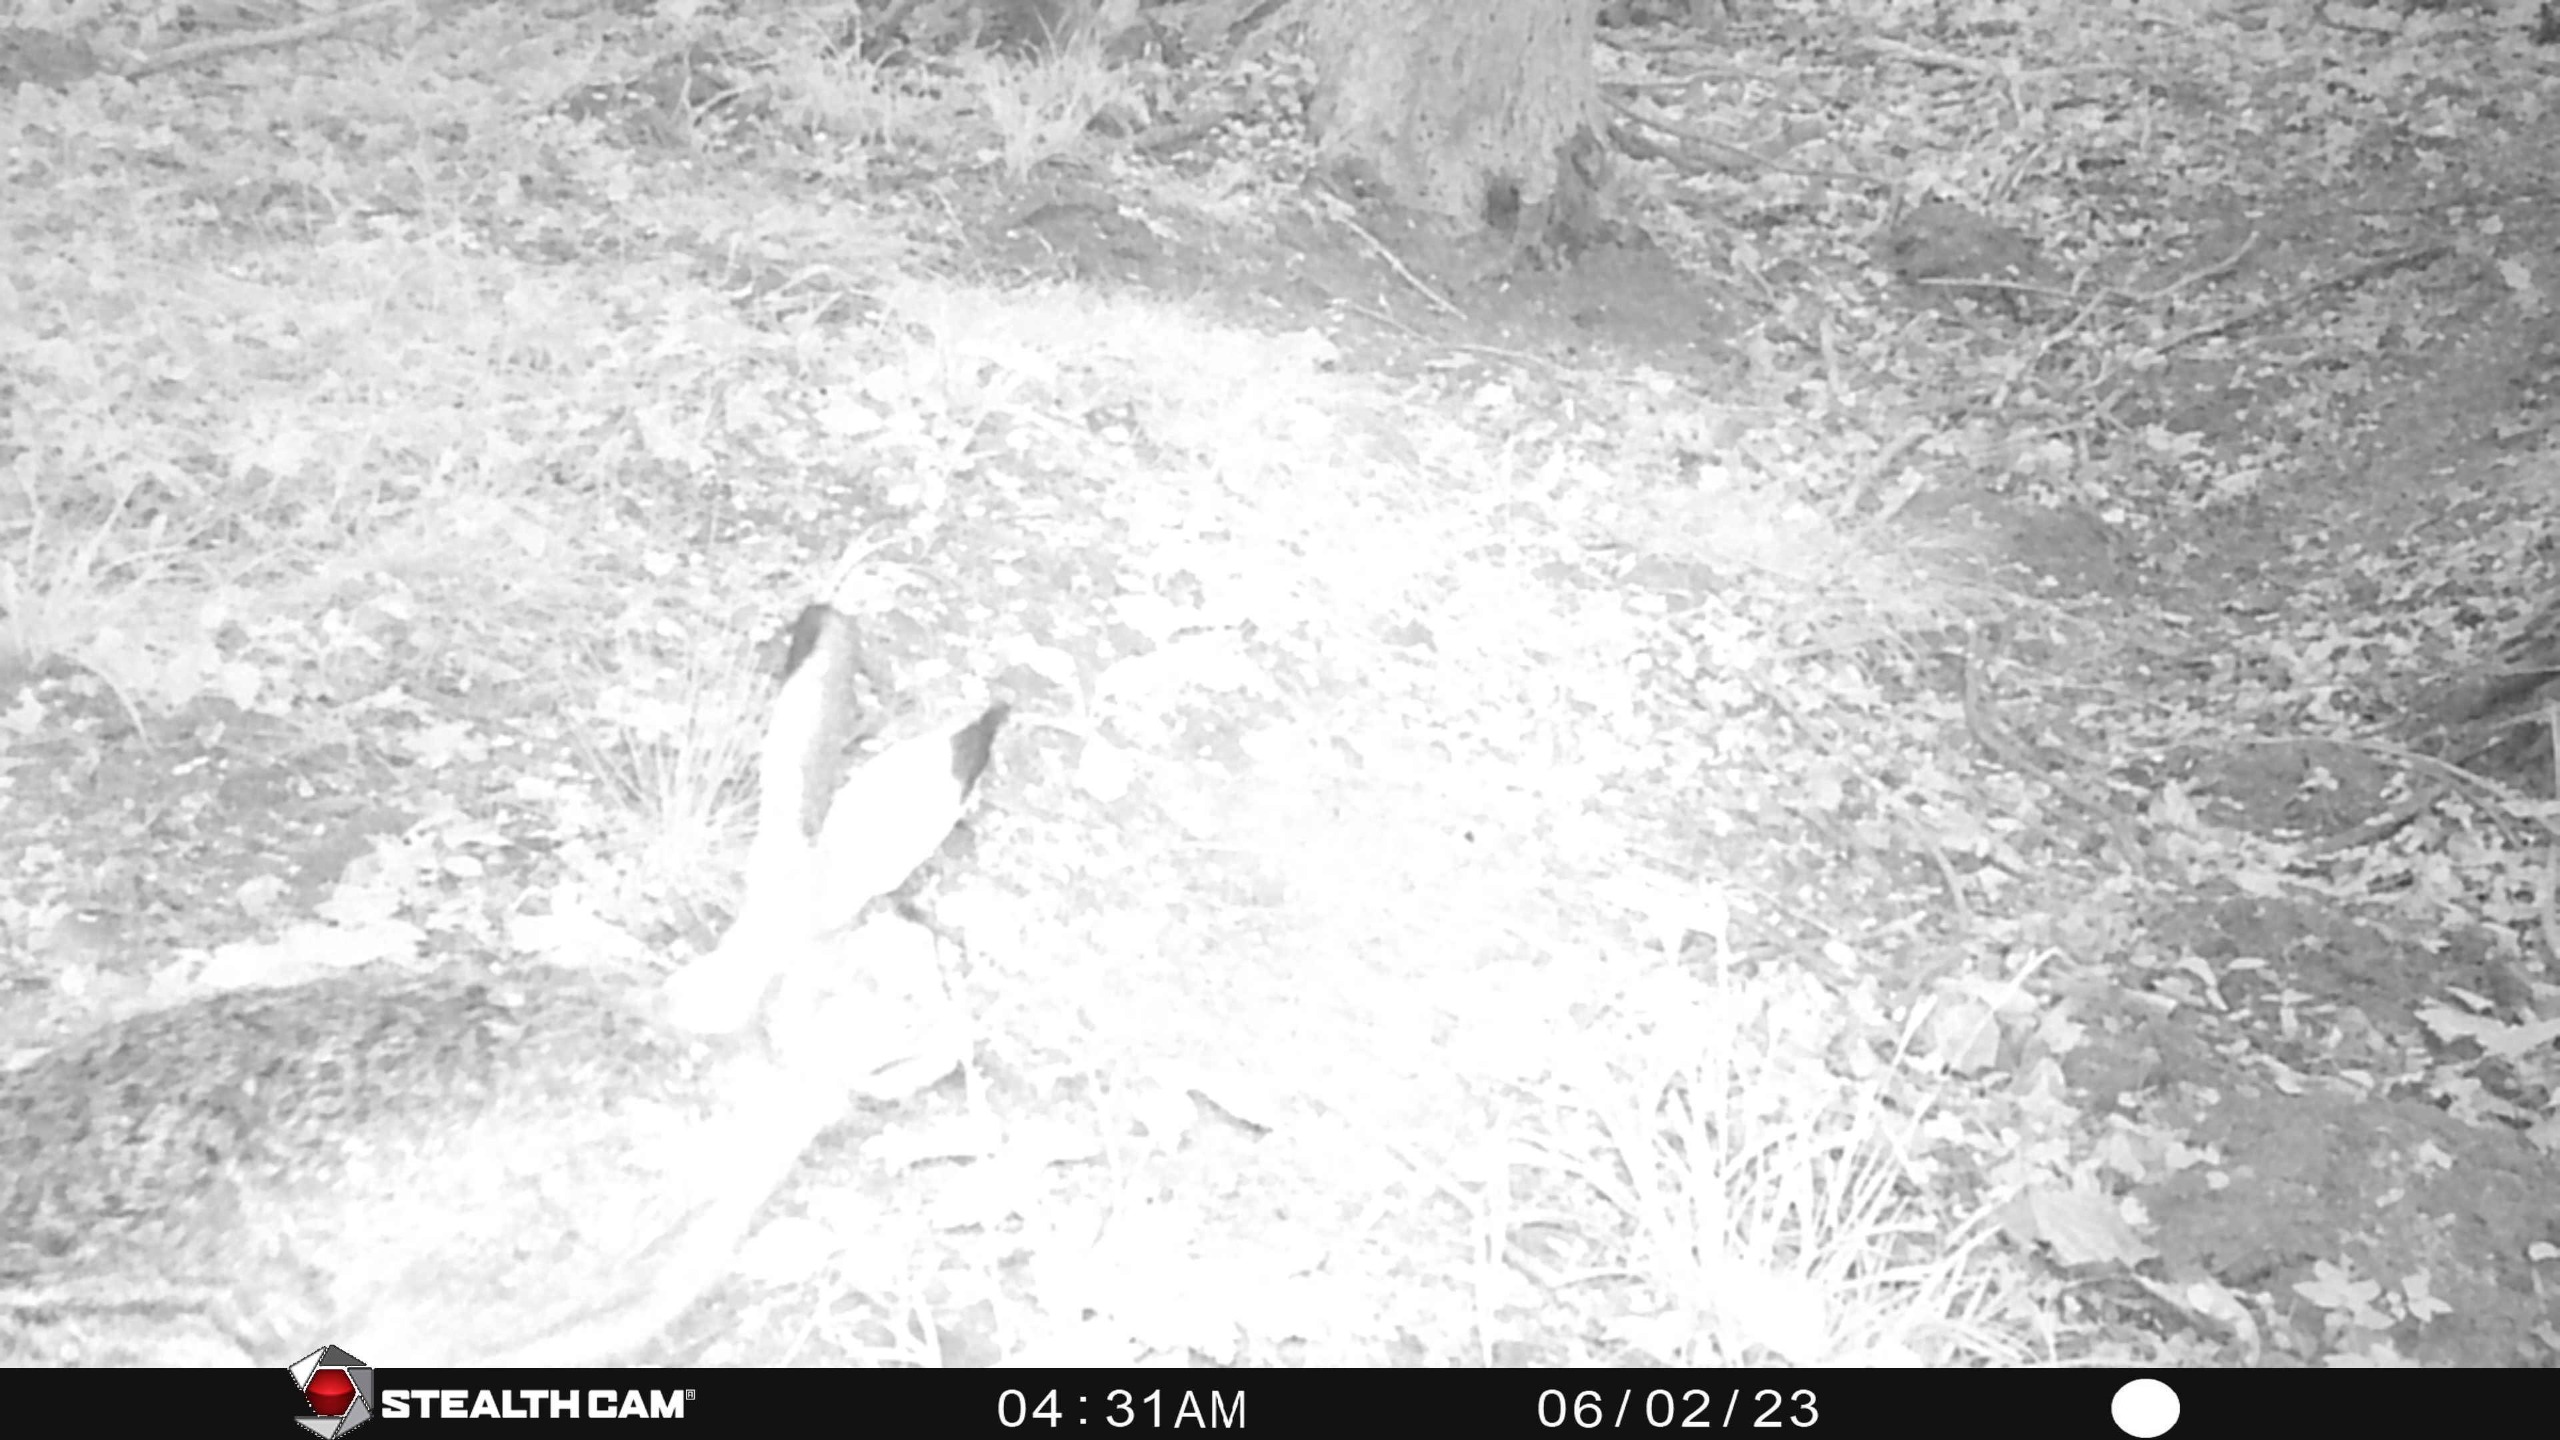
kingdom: Animalia
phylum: Chordata
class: Mammalia
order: Lagomorpha
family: Leporidae
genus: Lepus
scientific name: Lepus europaeus
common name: Hare
